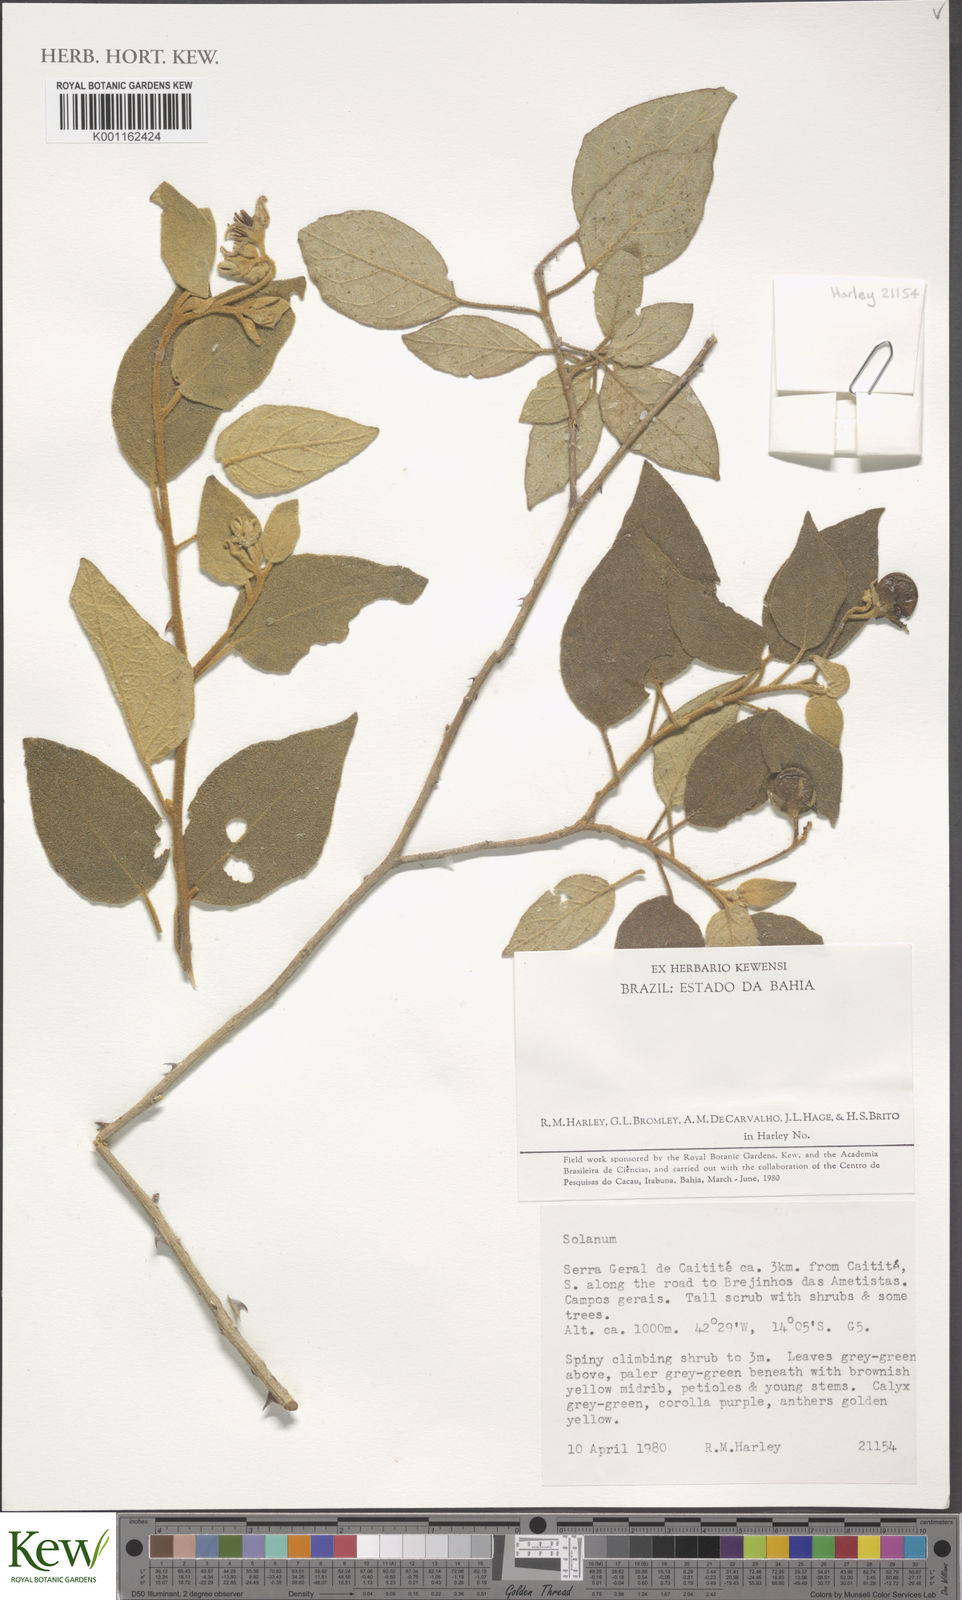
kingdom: Plantae
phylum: Tracheophyta
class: Magnoliopsida
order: Solanales
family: Solanaceae
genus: Solanum
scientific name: Solanum megalonyx
